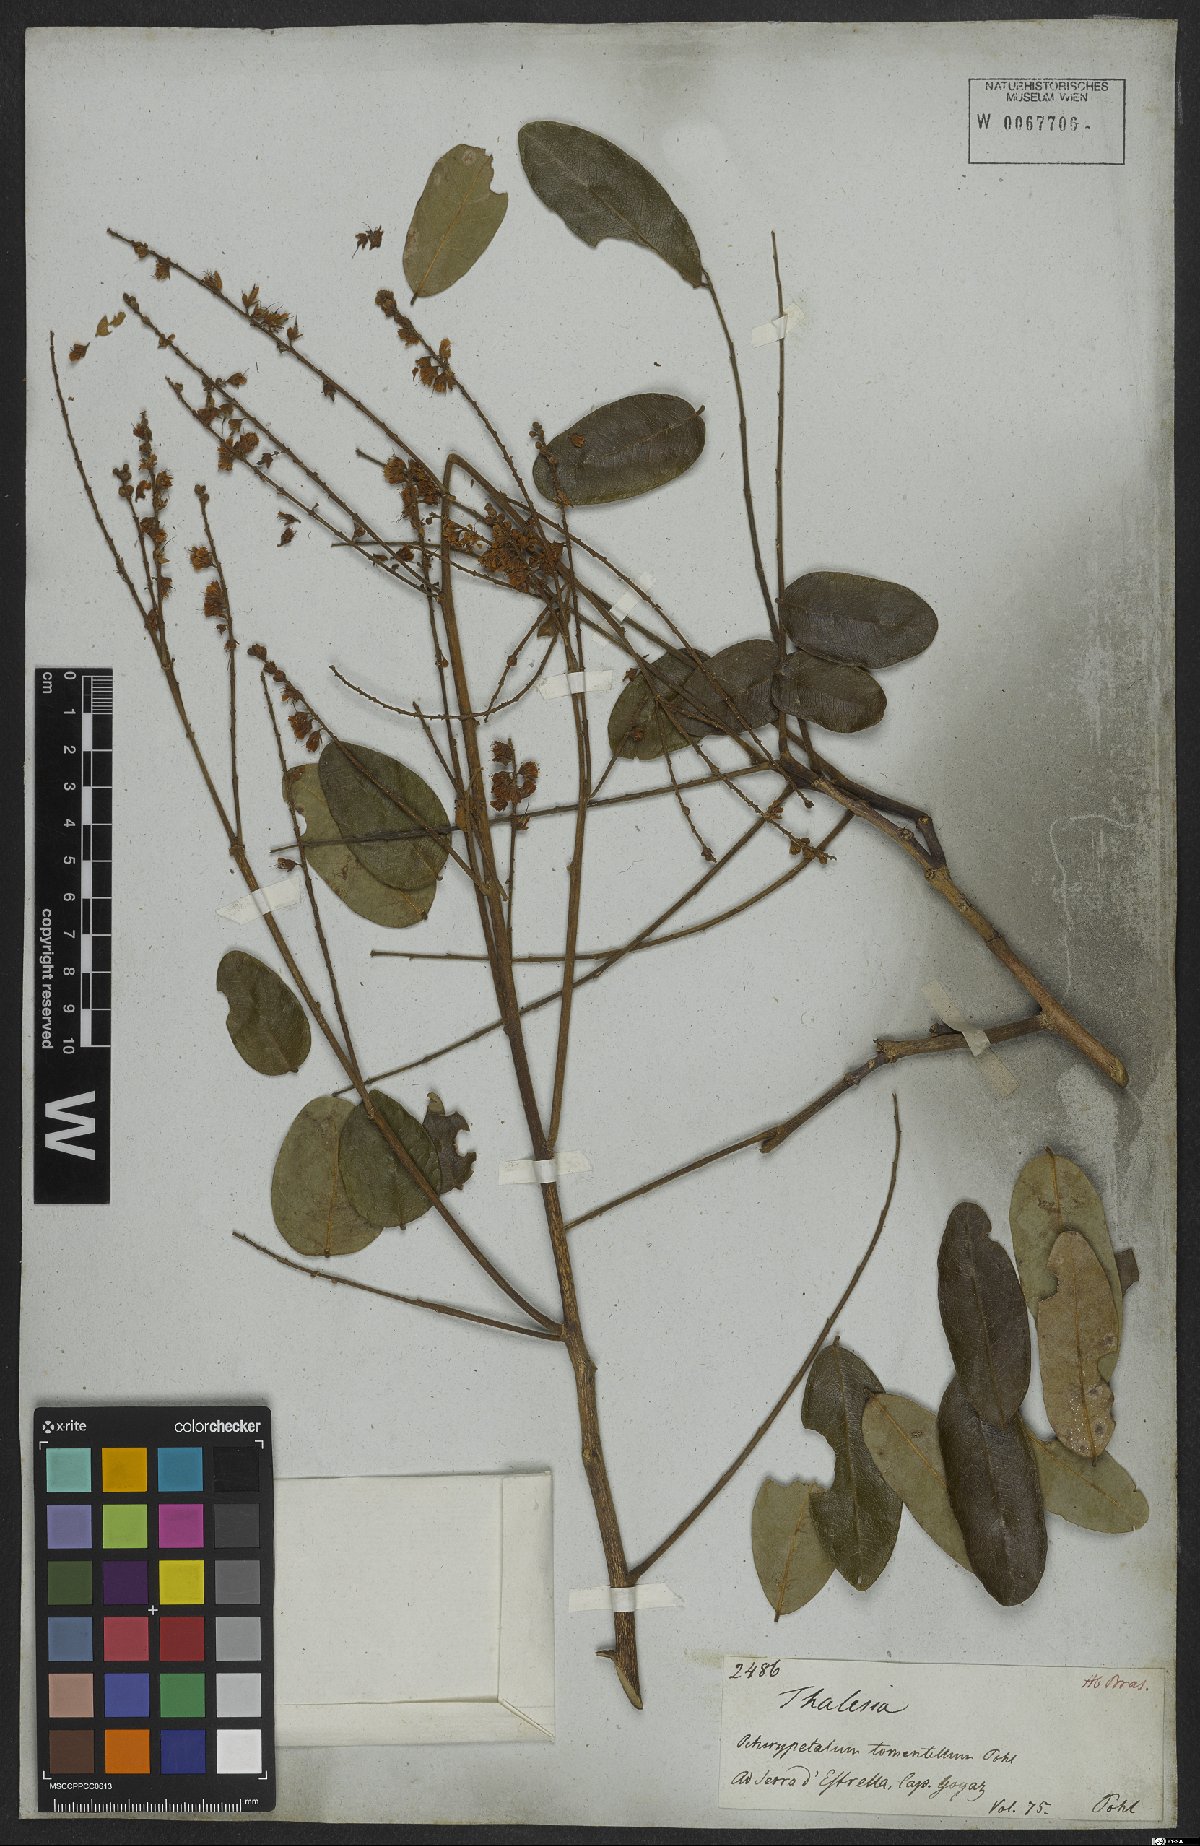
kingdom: Plantae
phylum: Tracheophyta
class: Magnoliopsida
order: Fabales
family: Fabaceae
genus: Hymenolobium
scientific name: Hymenolobium
